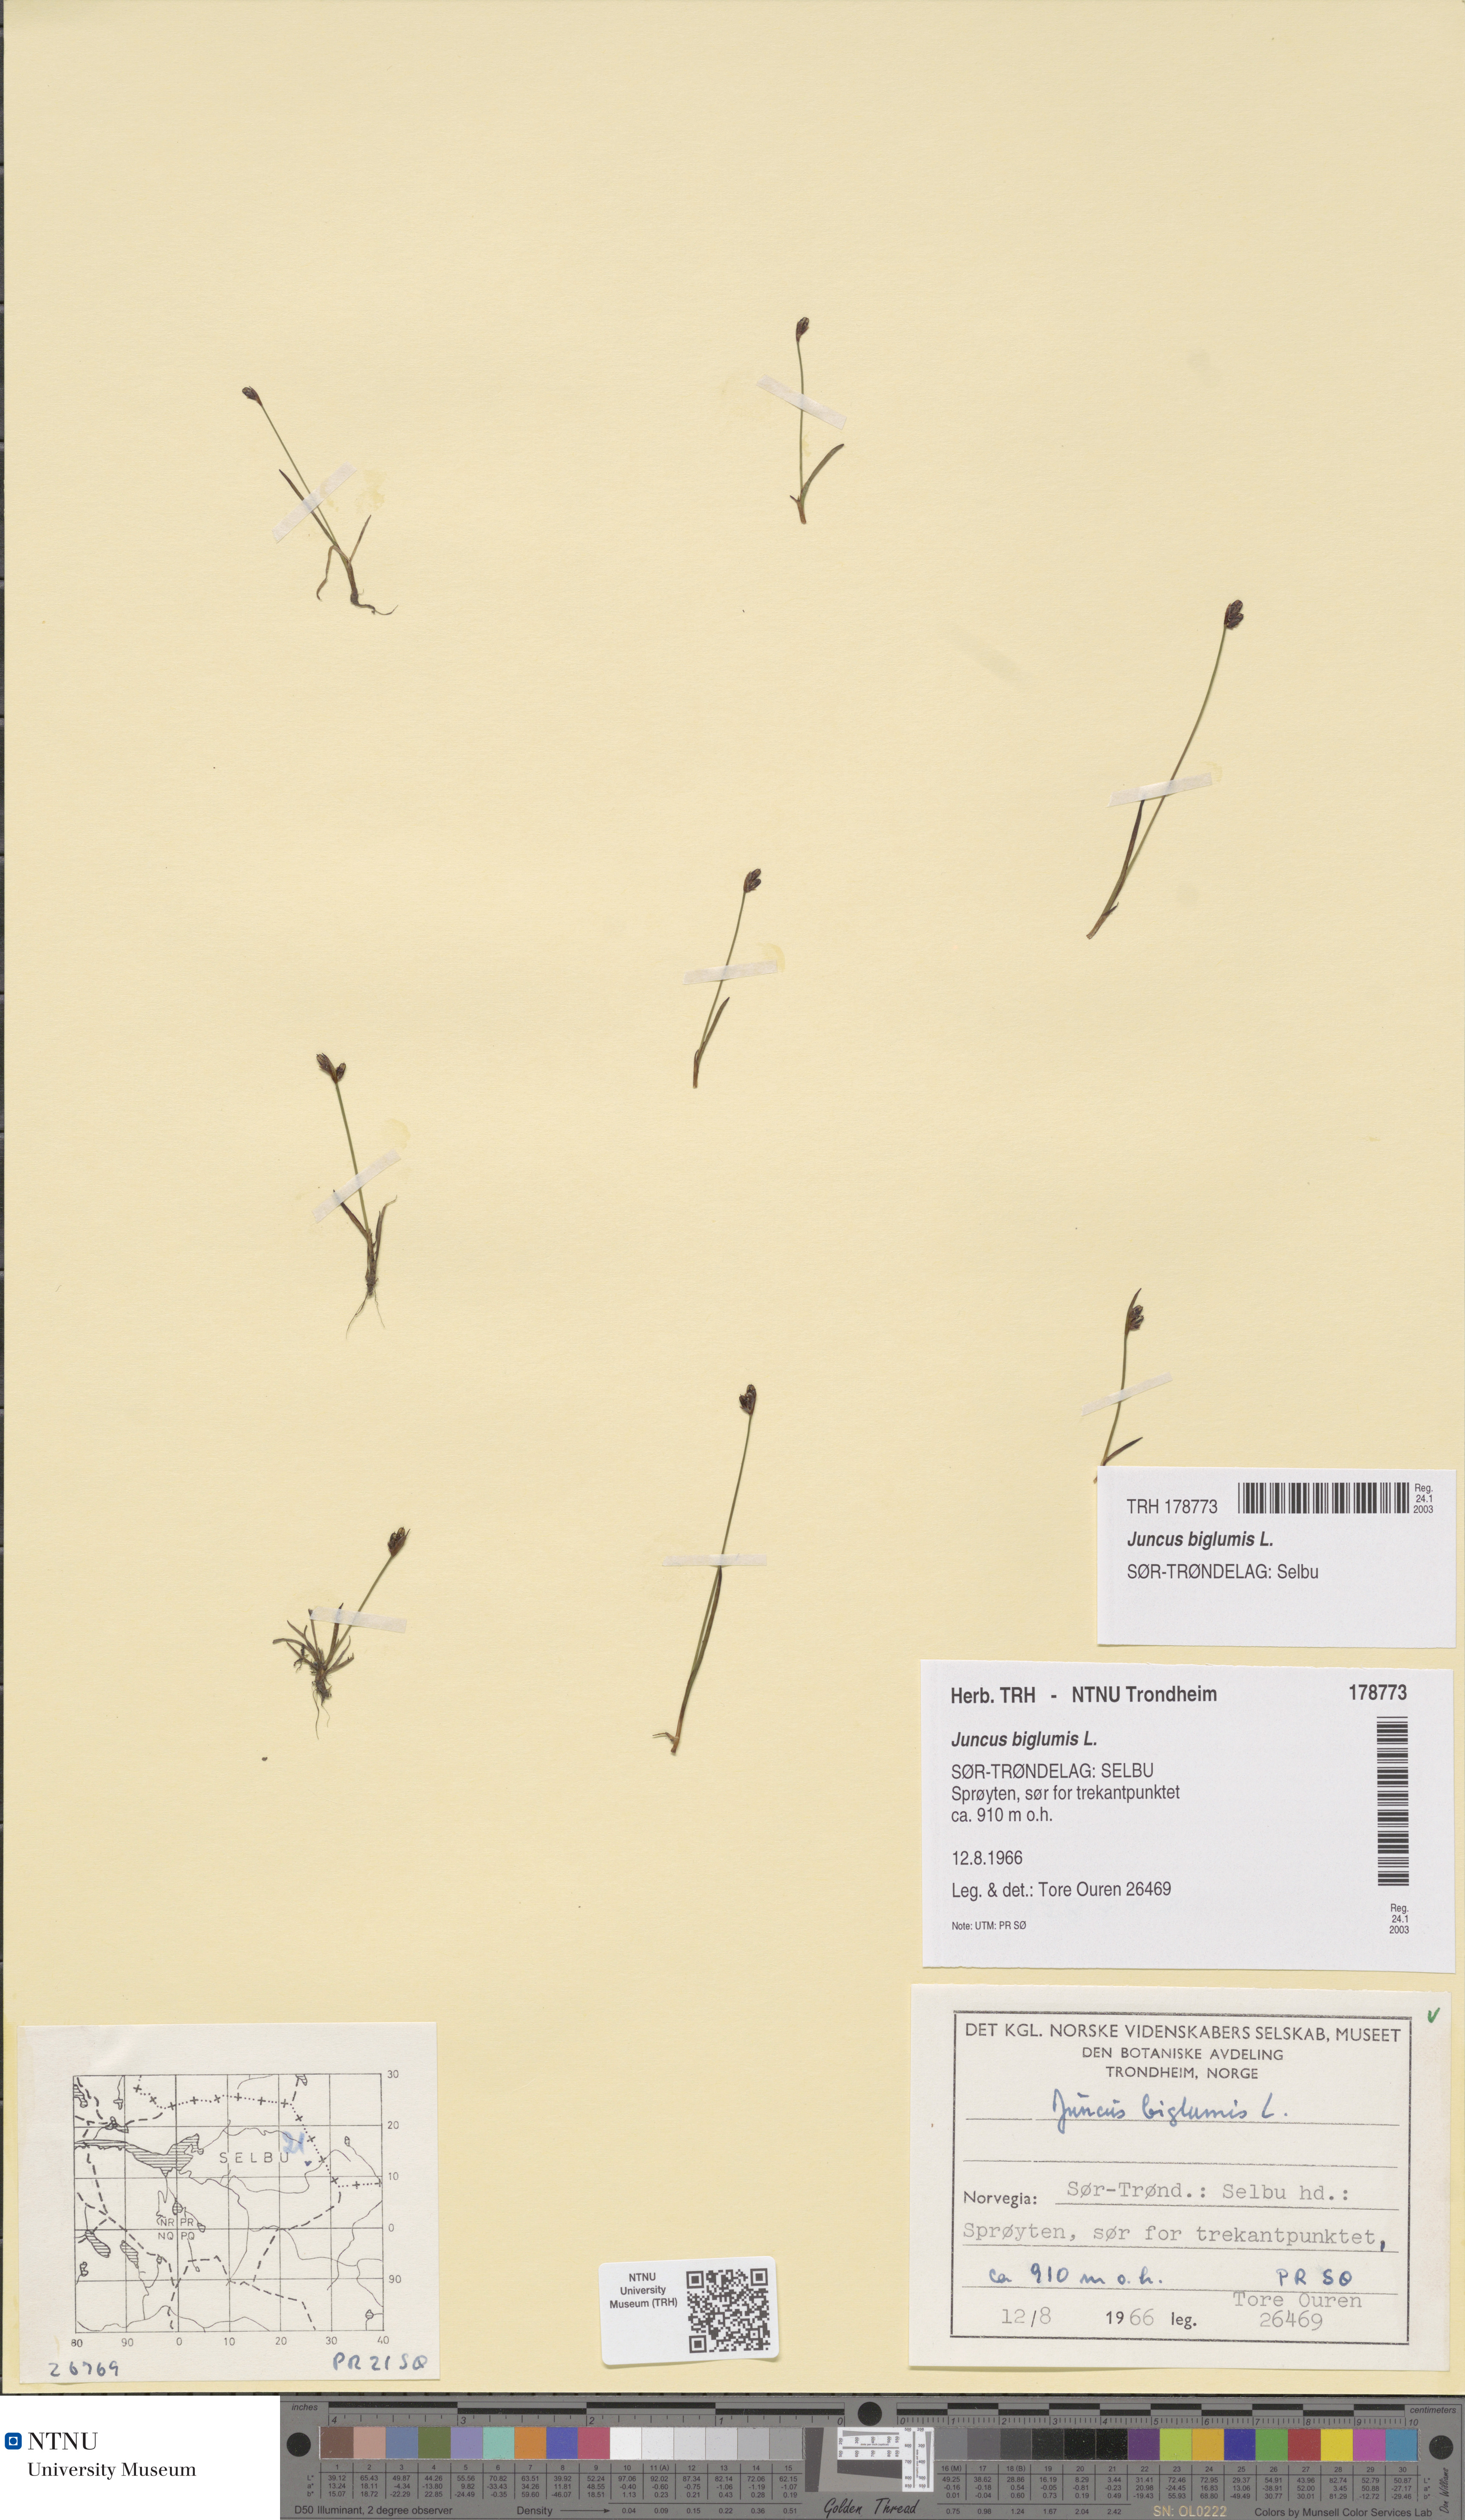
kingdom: Plantae
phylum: Tracheophyta
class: Liliopsida
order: Poales
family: Juncaceae
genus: Juncus
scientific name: Juncus biglumis
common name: Two-flowered rush
